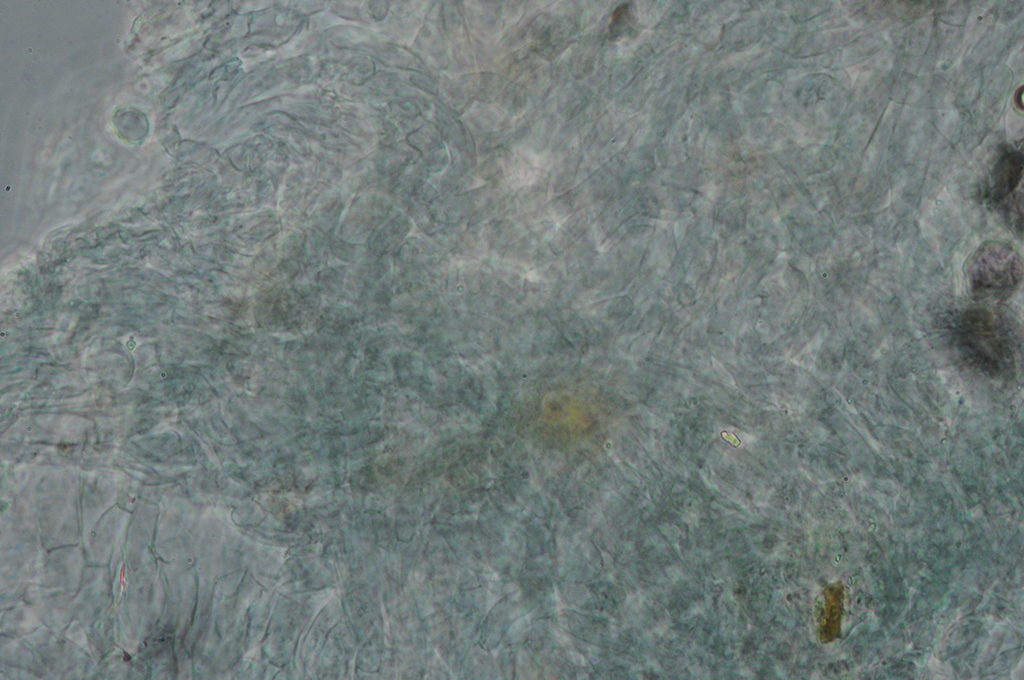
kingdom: Fungi
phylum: Basidiomycota
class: Agaricomycetes
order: Agaricales
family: Tricholomataceae
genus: Pseudobaeospora
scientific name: Pseudobaeospora pyrifera
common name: stor røghat
